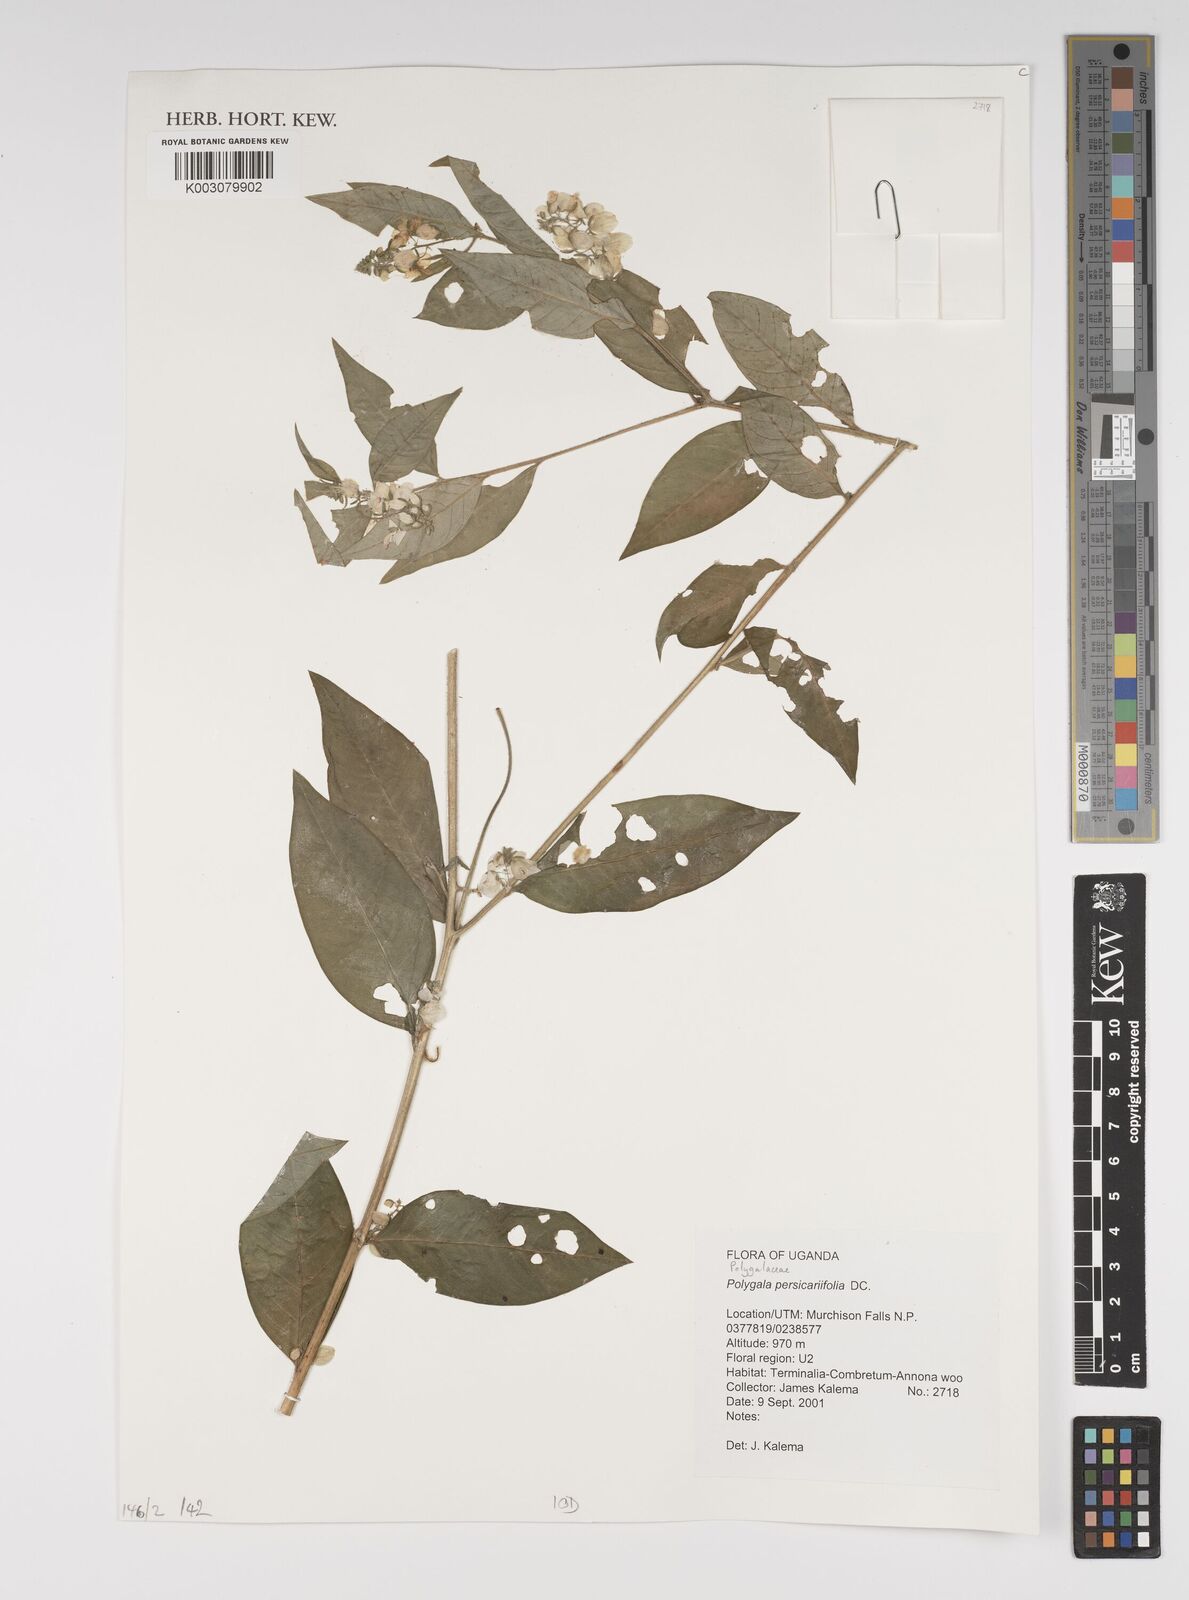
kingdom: Plantae
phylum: Tracheophyta
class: Magnoliopsida
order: Fabales
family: Polygalaceae
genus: Polygala
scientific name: Polygala persicariifolia
